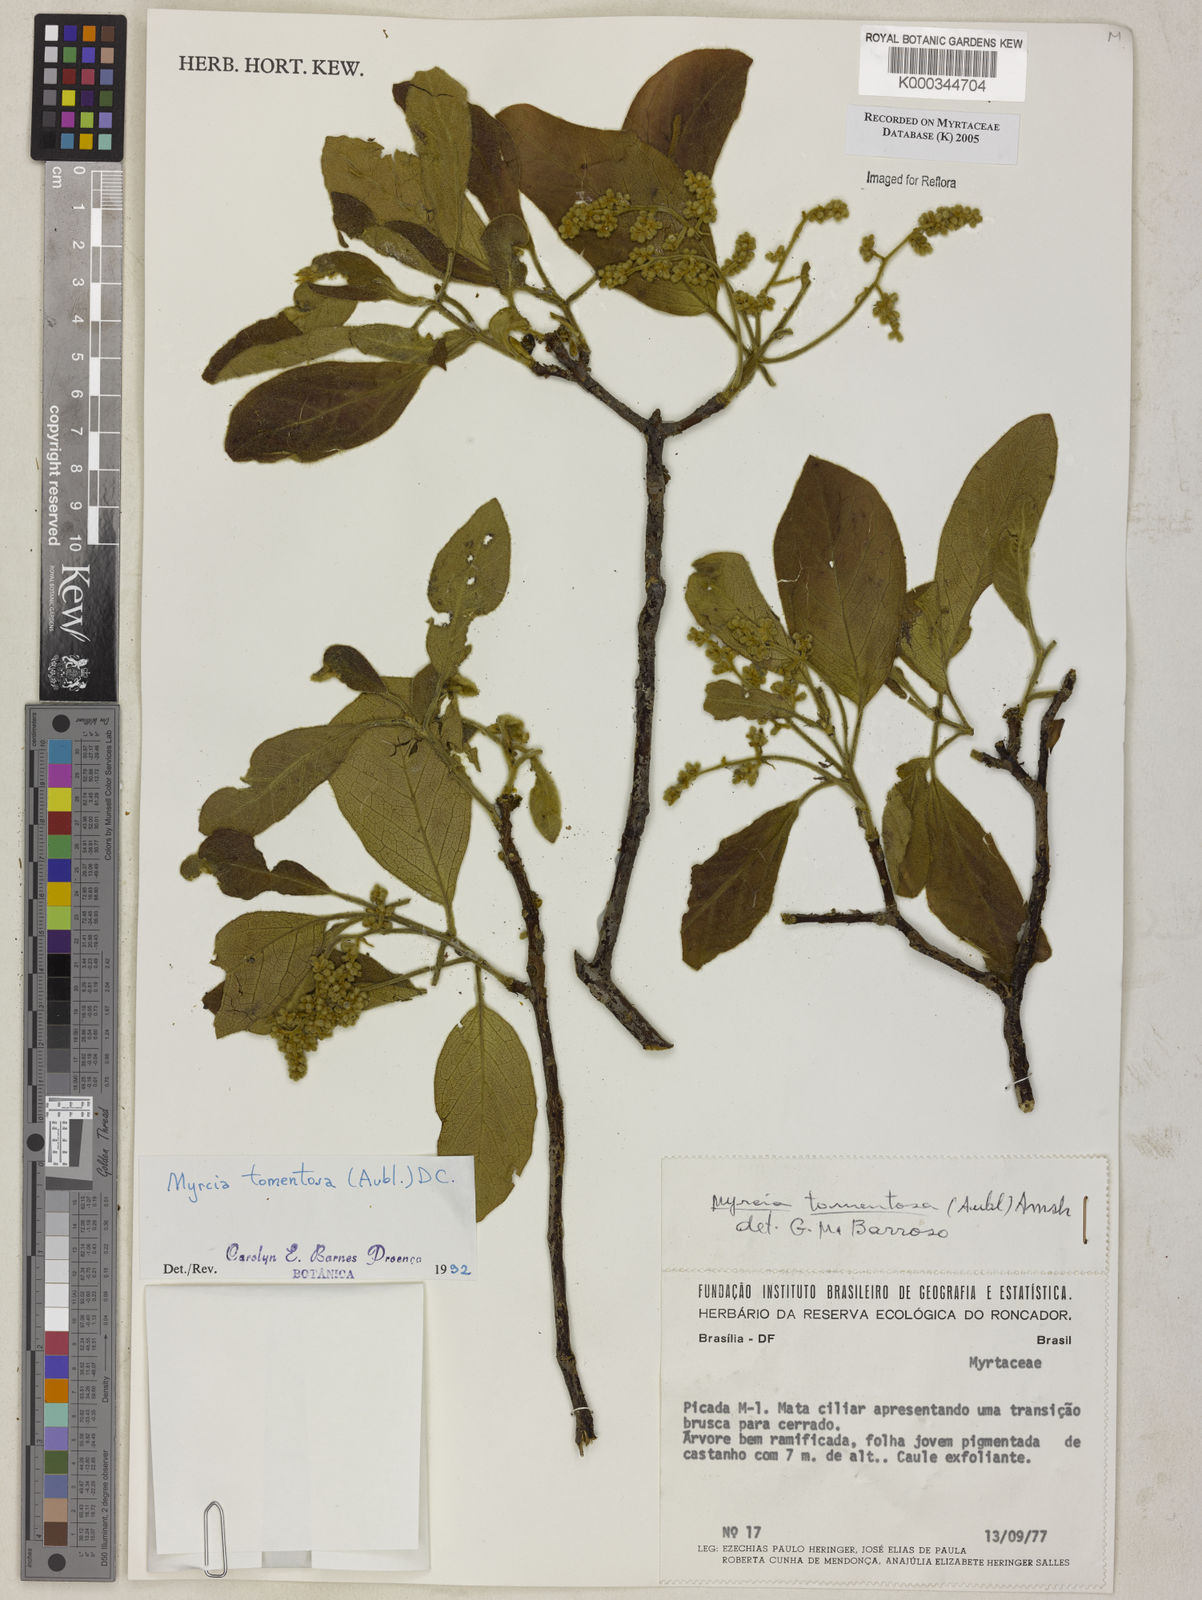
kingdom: Plantae
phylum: Tracheophyta
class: Magnoliopsida
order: Myrtales
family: Myrtaceae
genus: Myrcia
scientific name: Myrcia tomentosa
